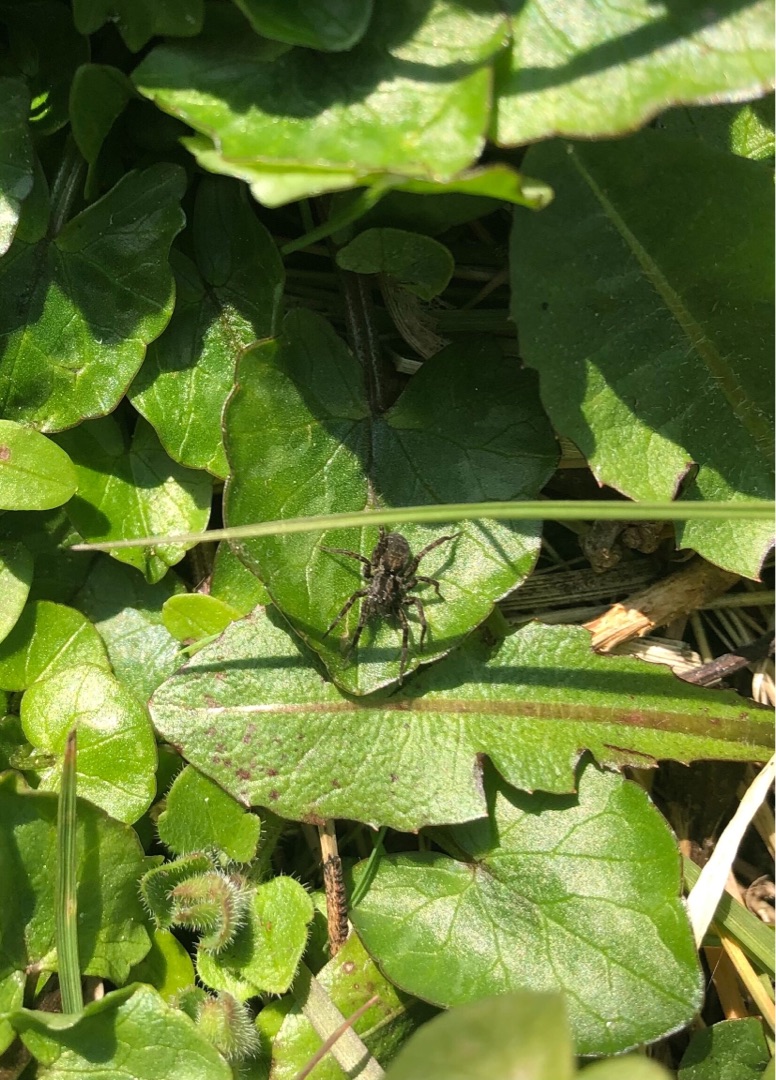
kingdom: Animalia
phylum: Arthropoda
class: Arachnida
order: Araneae
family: Lycosidae
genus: Pardosa
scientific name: Pardosa
